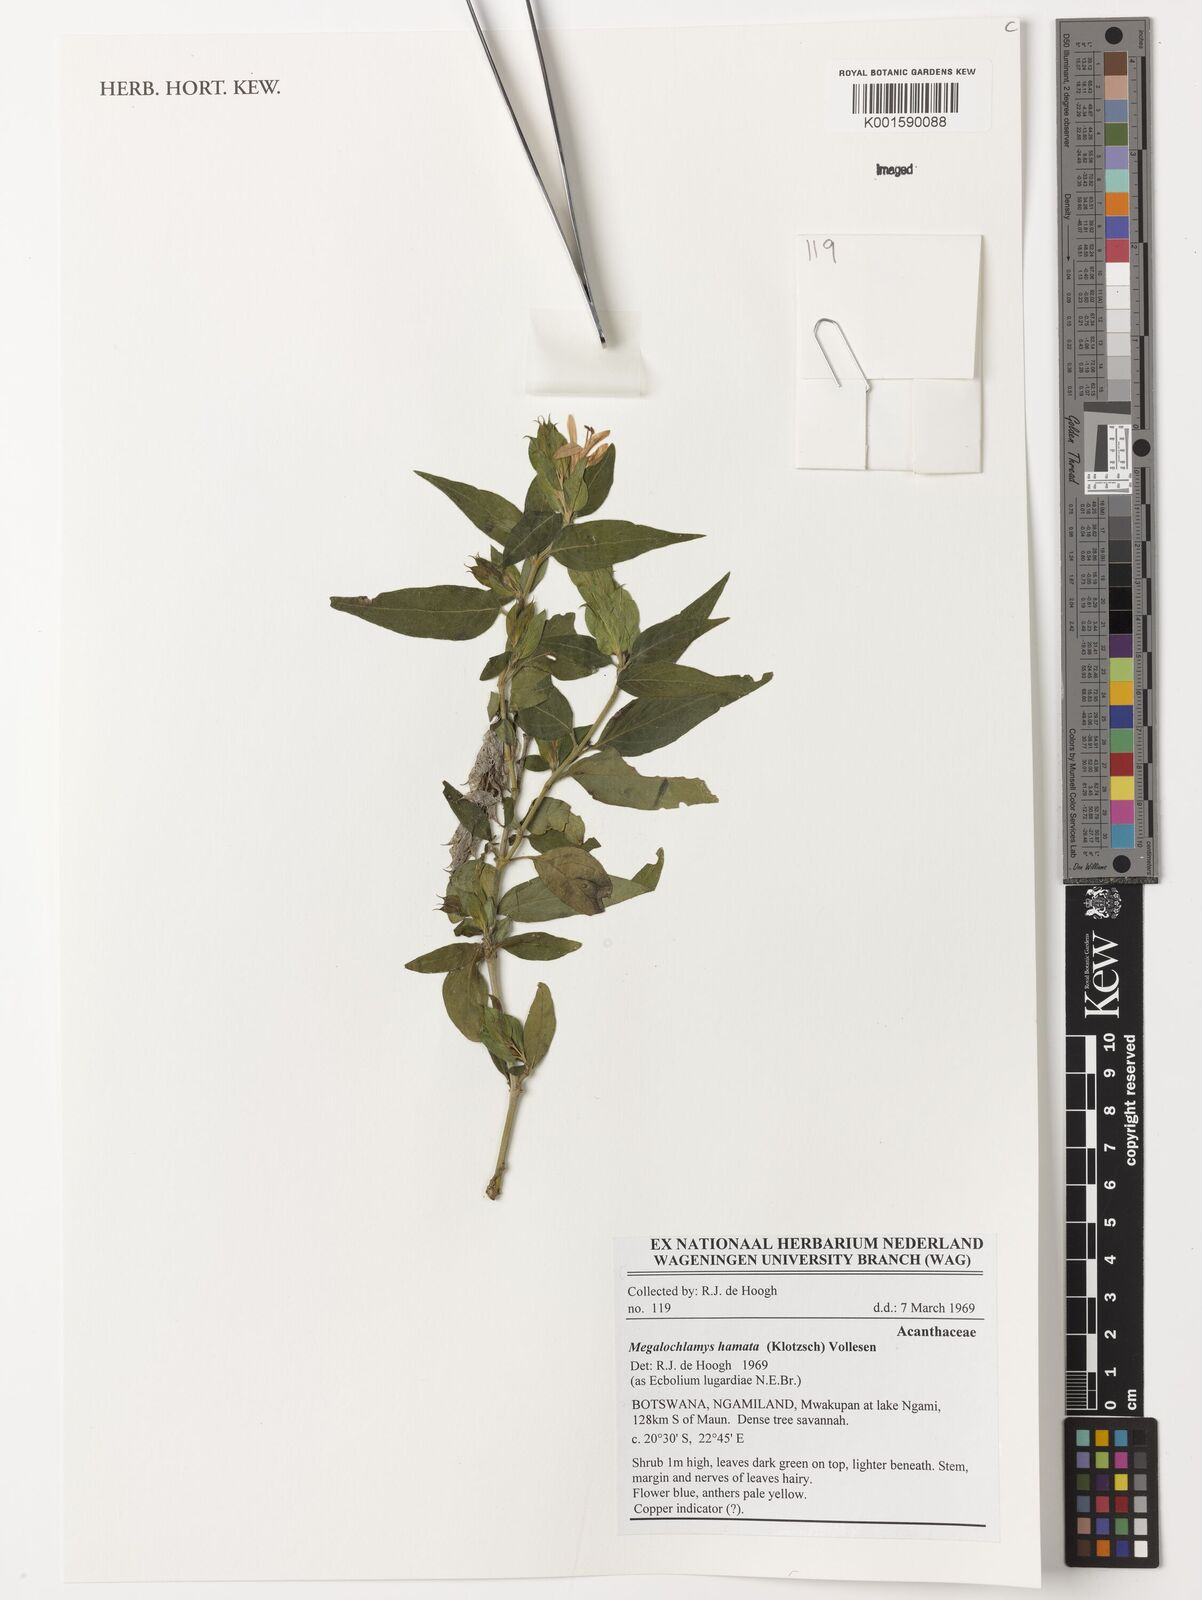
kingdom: Plantae
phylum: Tracheophyta
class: Magnoliopsida
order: Lamiales
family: Acanthaceae
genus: Megalochlamys
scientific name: Megalochlamys hamata
